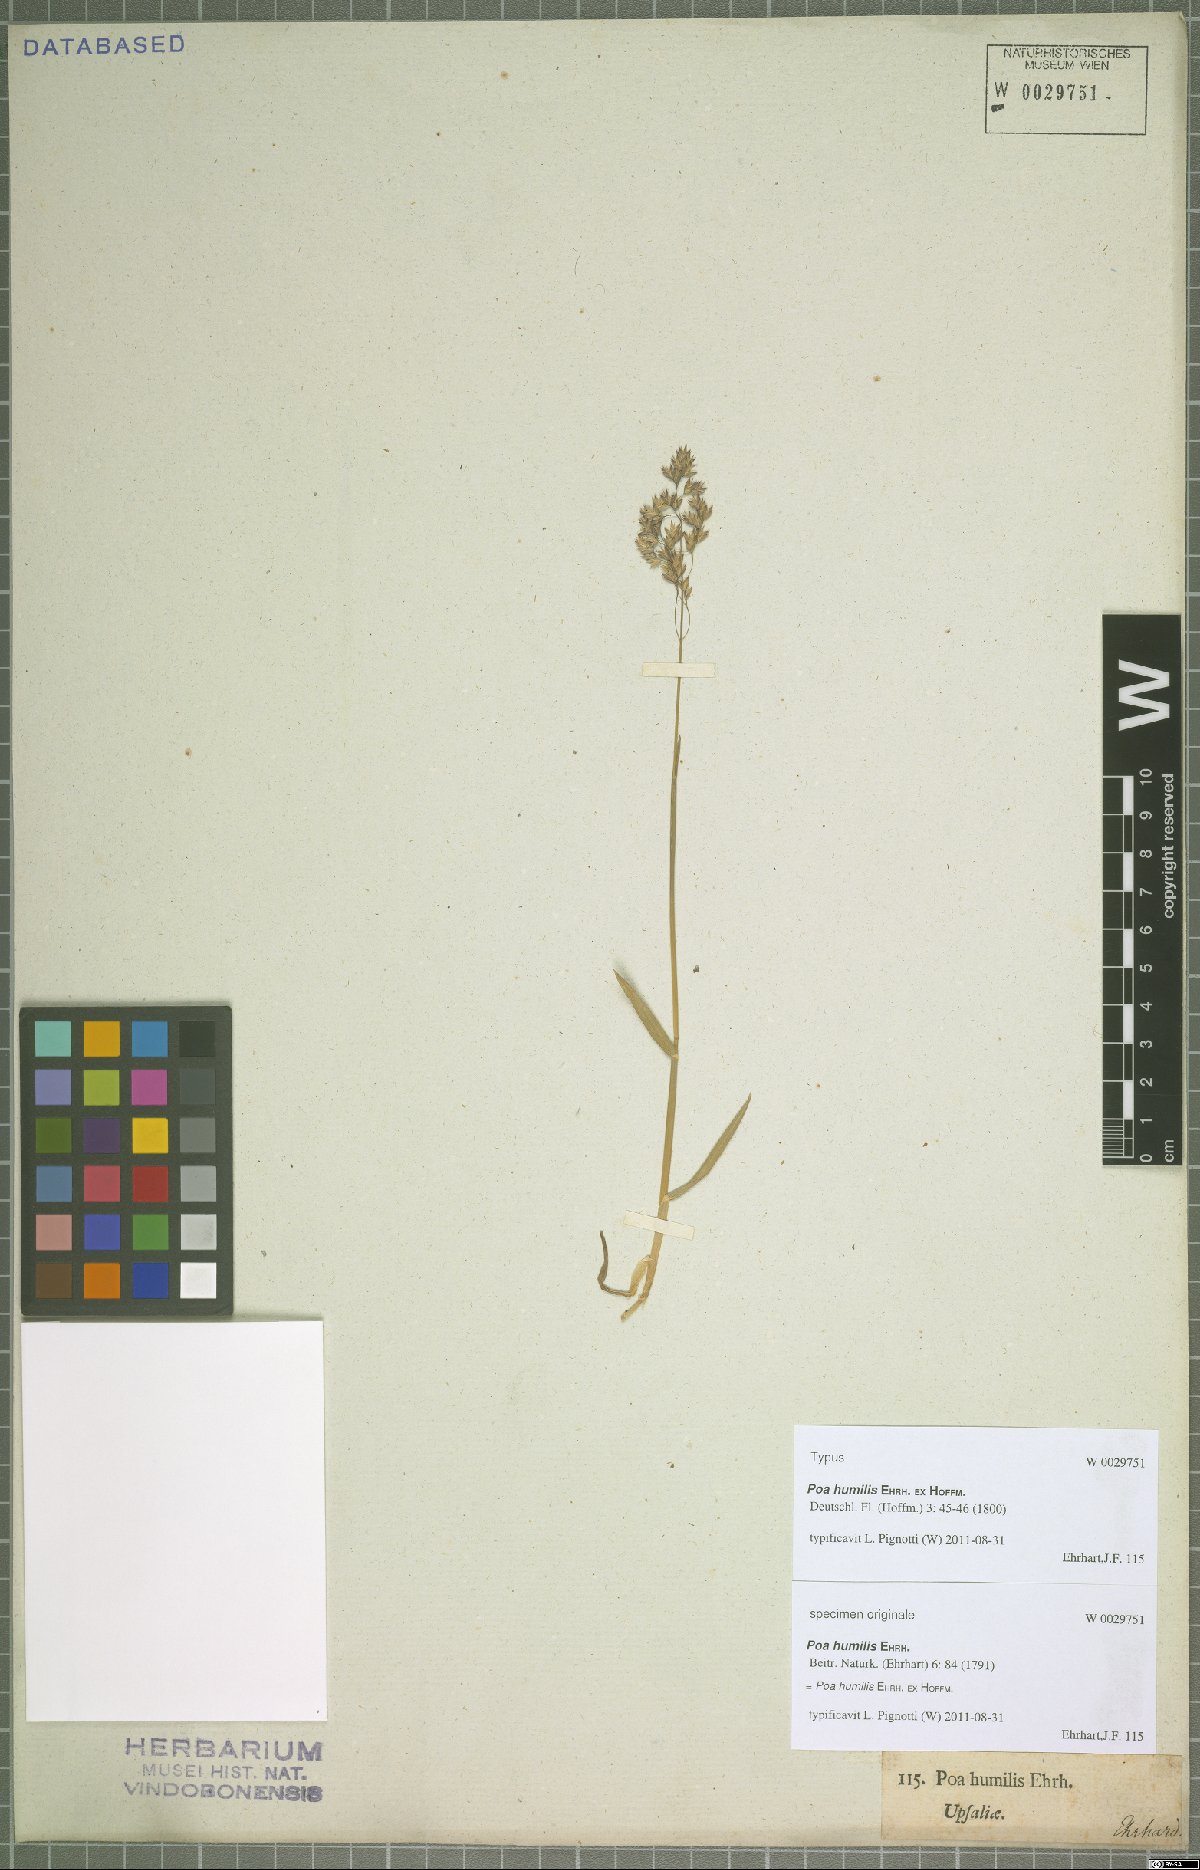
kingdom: Plantae
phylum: Tracheophyta
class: Liliopsida
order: Poales
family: Poaceae
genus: Poa
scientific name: Poa humilis
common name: Spreading meadow-grass
